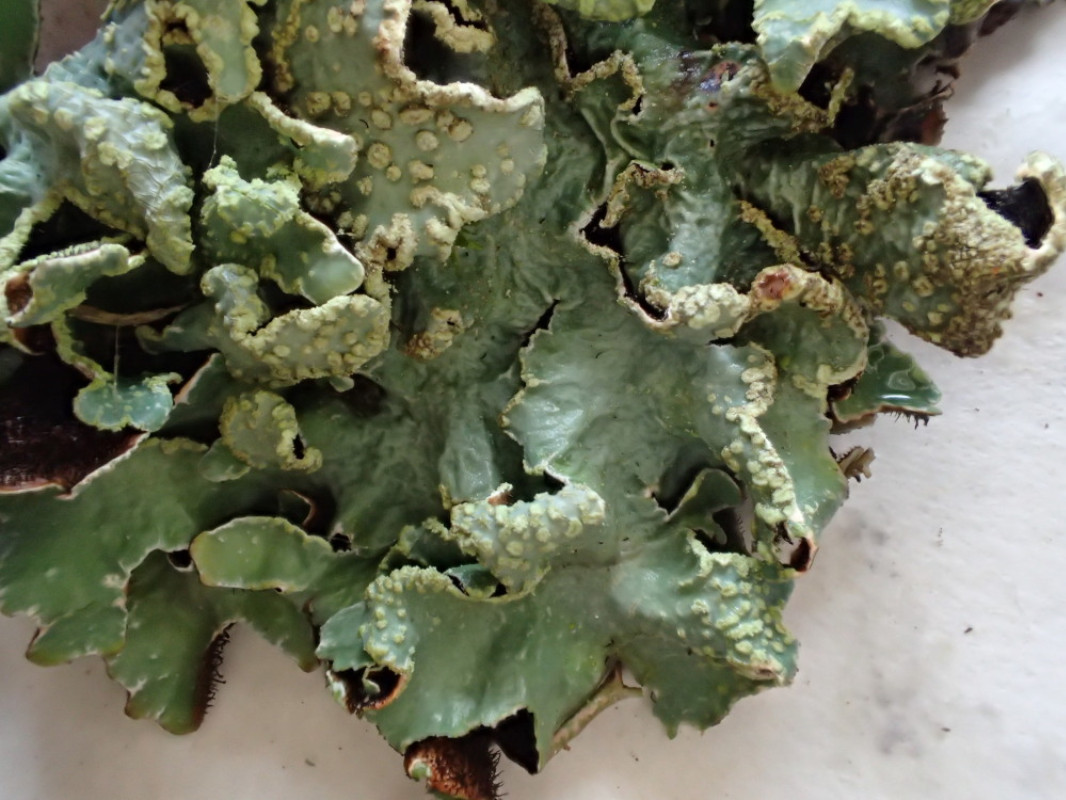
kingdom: Fungi
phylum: Ascomycota
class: Lecanoromycetes
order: Lecanorales
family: Parmeliaceae
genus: Parmelia
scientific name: Parmelia sulcata
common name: rynket skållav
